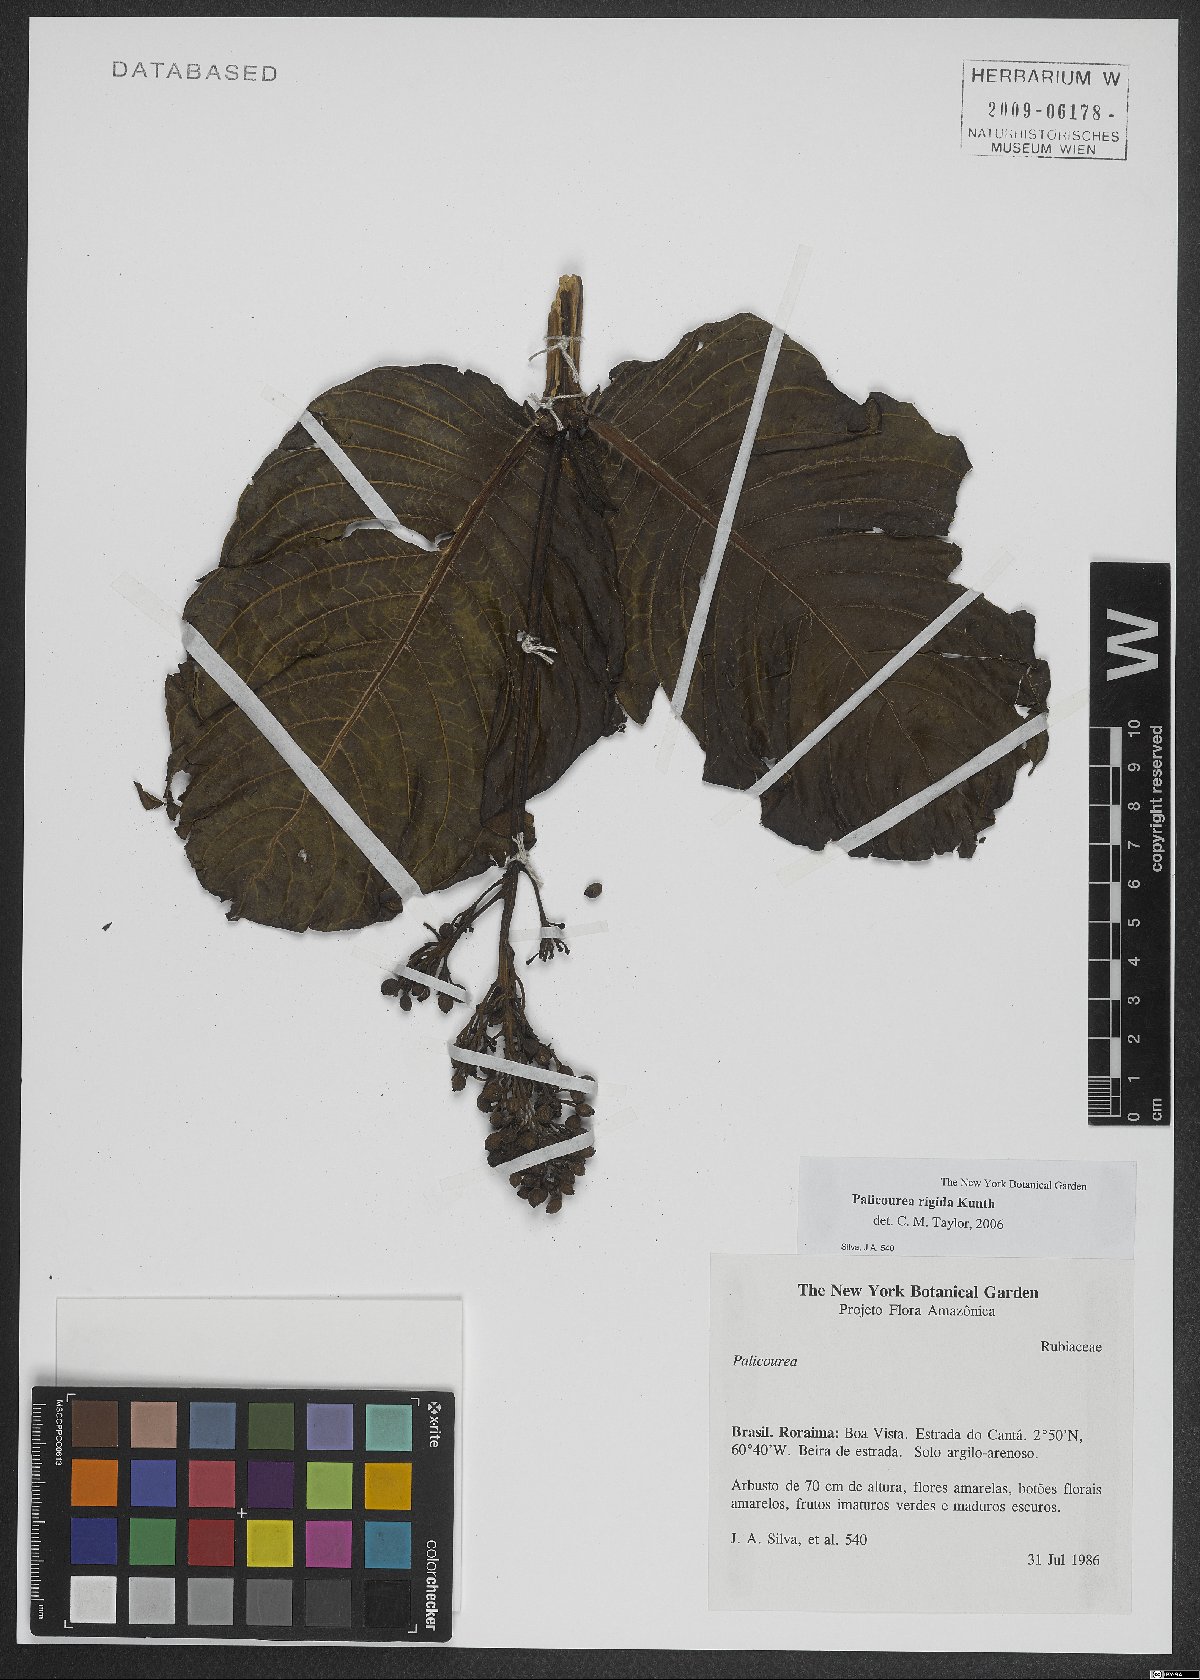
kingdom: Plantae
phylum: Tracheophyta
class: Magnoliopsida
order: Gentianales
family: Rubiaceae
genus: Palicourea
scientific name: Palicourea rigida
